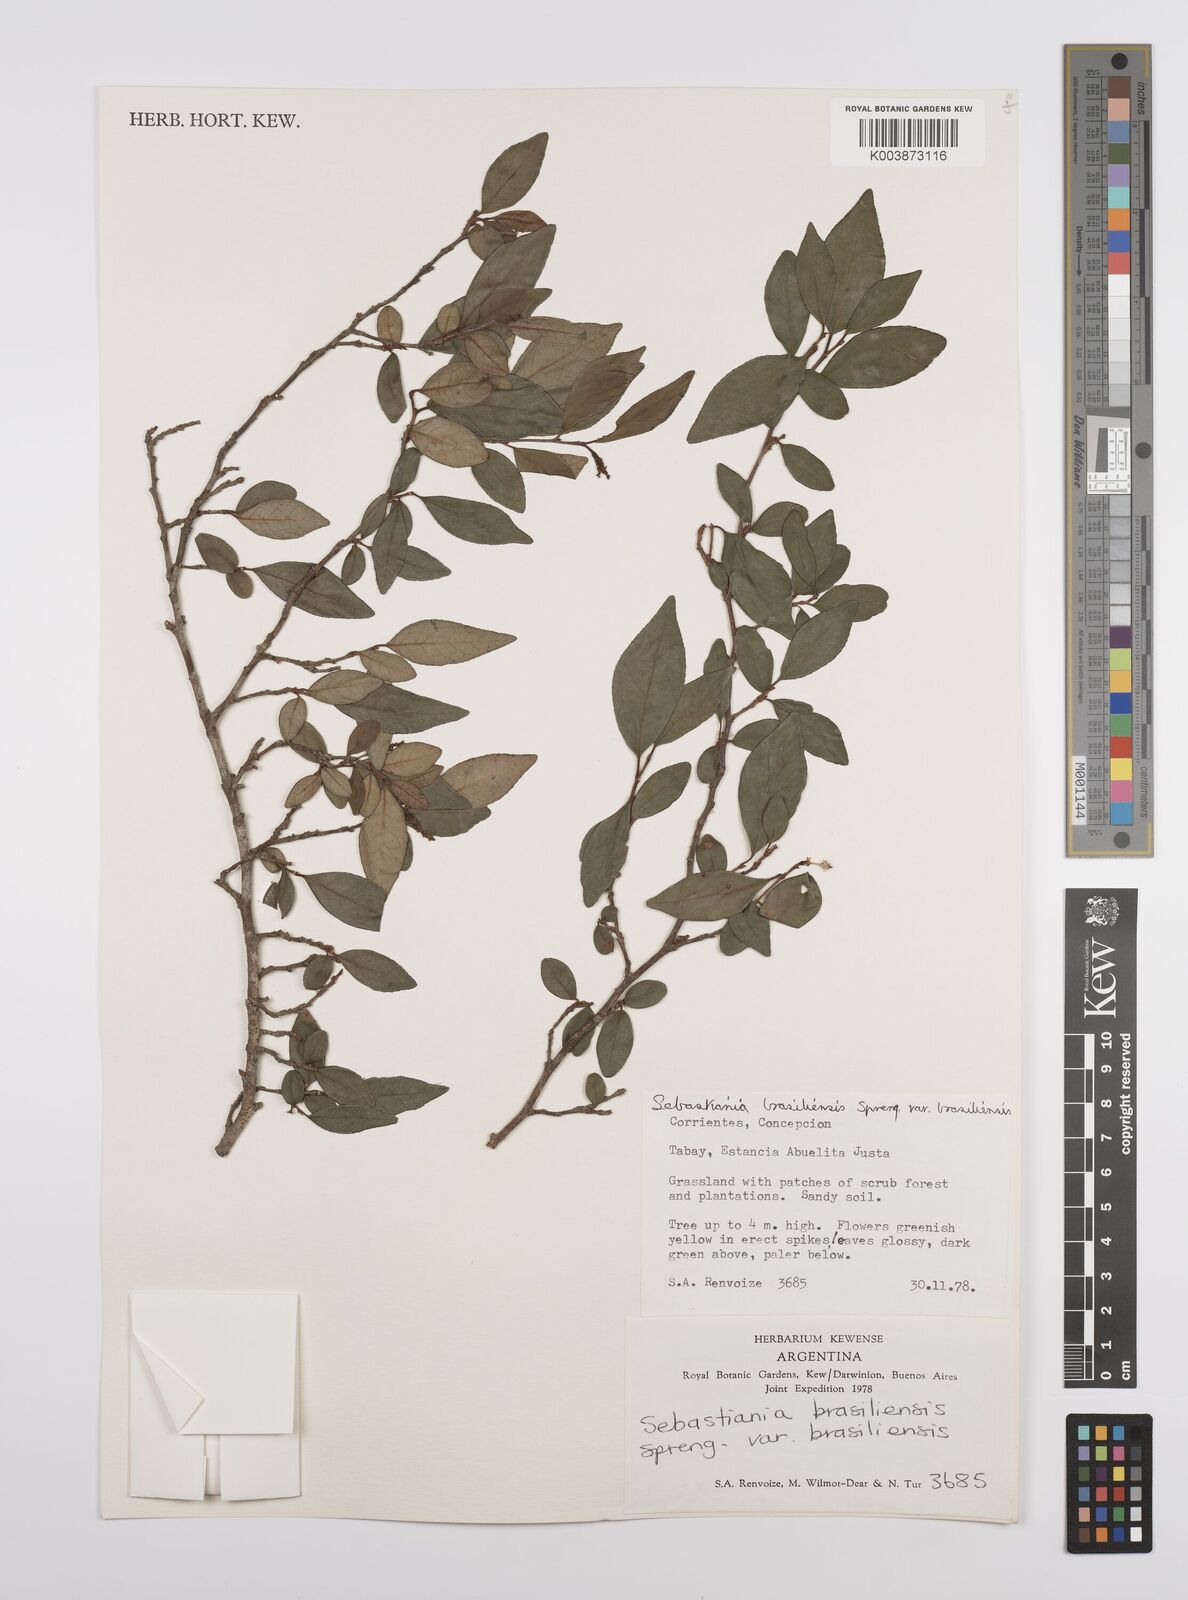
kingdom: Plantae
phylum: Tracheophyta
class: Magnoliopsida
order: Malpighiales
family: Euphorbiaceae
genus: Sebastiania
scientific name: Sebastiania brasiliensis
